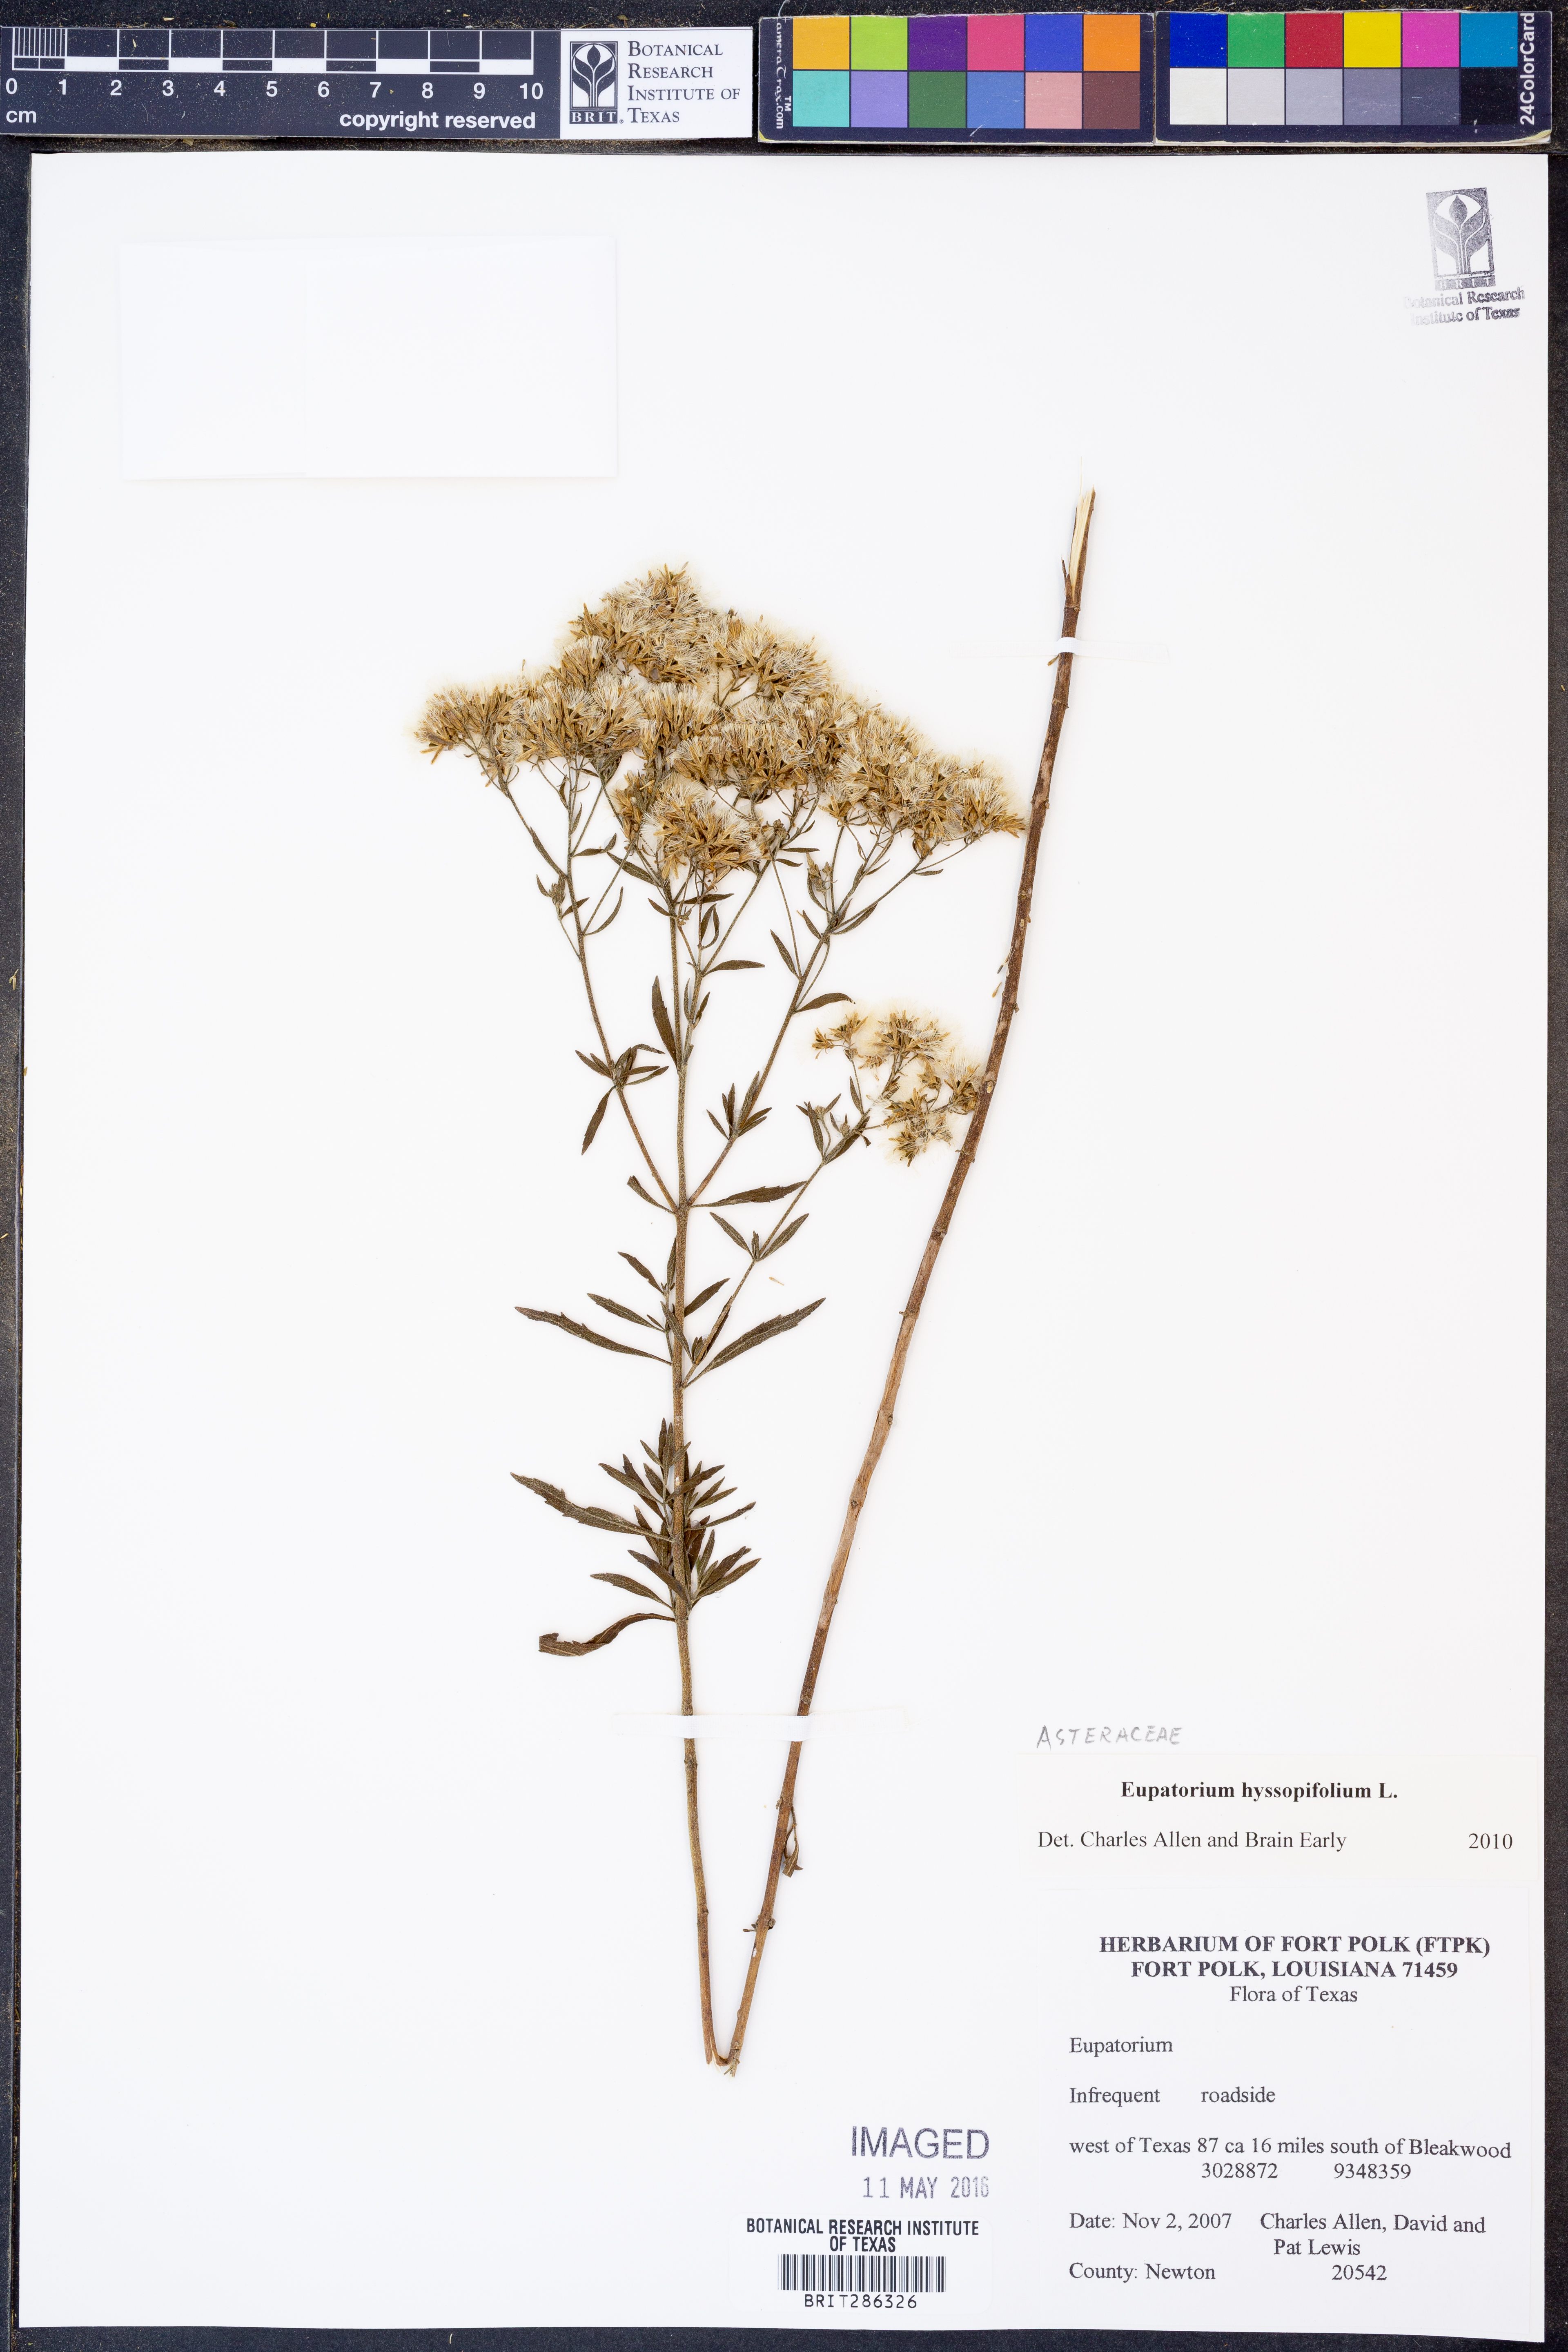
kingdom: Plantae
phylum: Tracheophyta
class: Magnoliopsida
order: Asterales
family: Asteraceae
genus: Eupatorium
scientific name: Eupatorium hyssopifolium
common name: Hyssop-leaf thoroughwort
